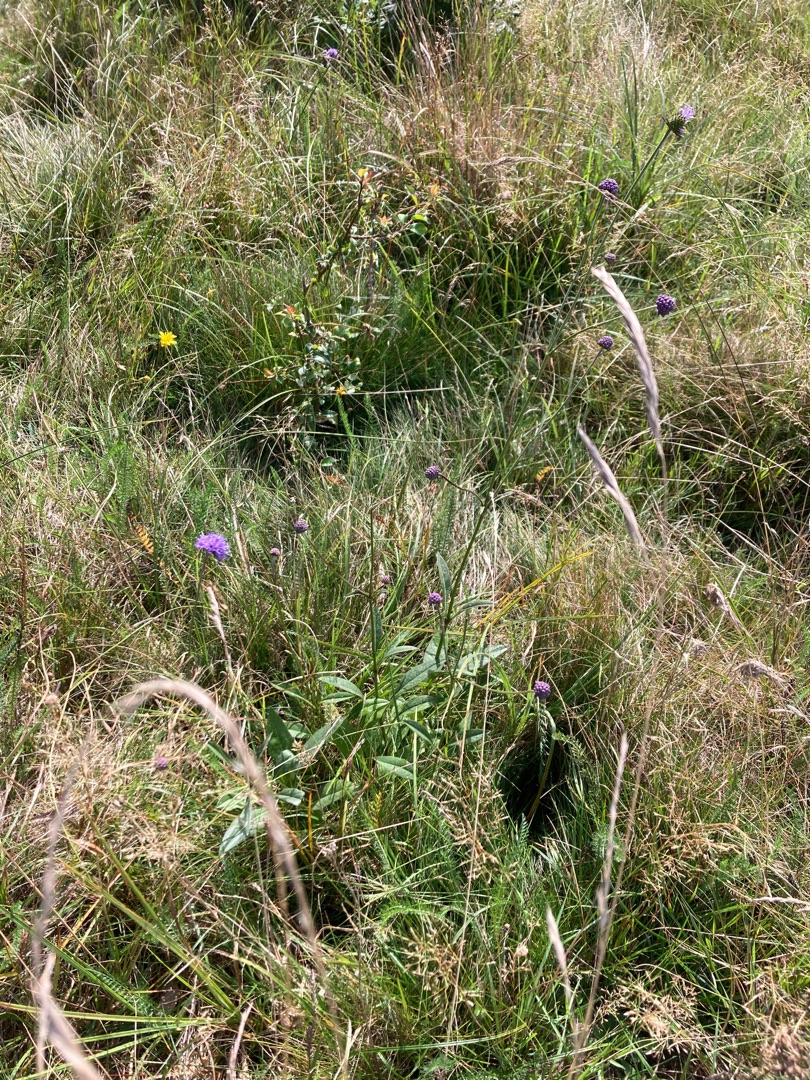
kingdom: Plantae
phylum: Tracheophyta
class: Magnoliopsida
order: Dipsacales
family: Caprifoliaceae
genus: Succisa
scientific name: Succisa pratensis
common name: Djævelsbid
